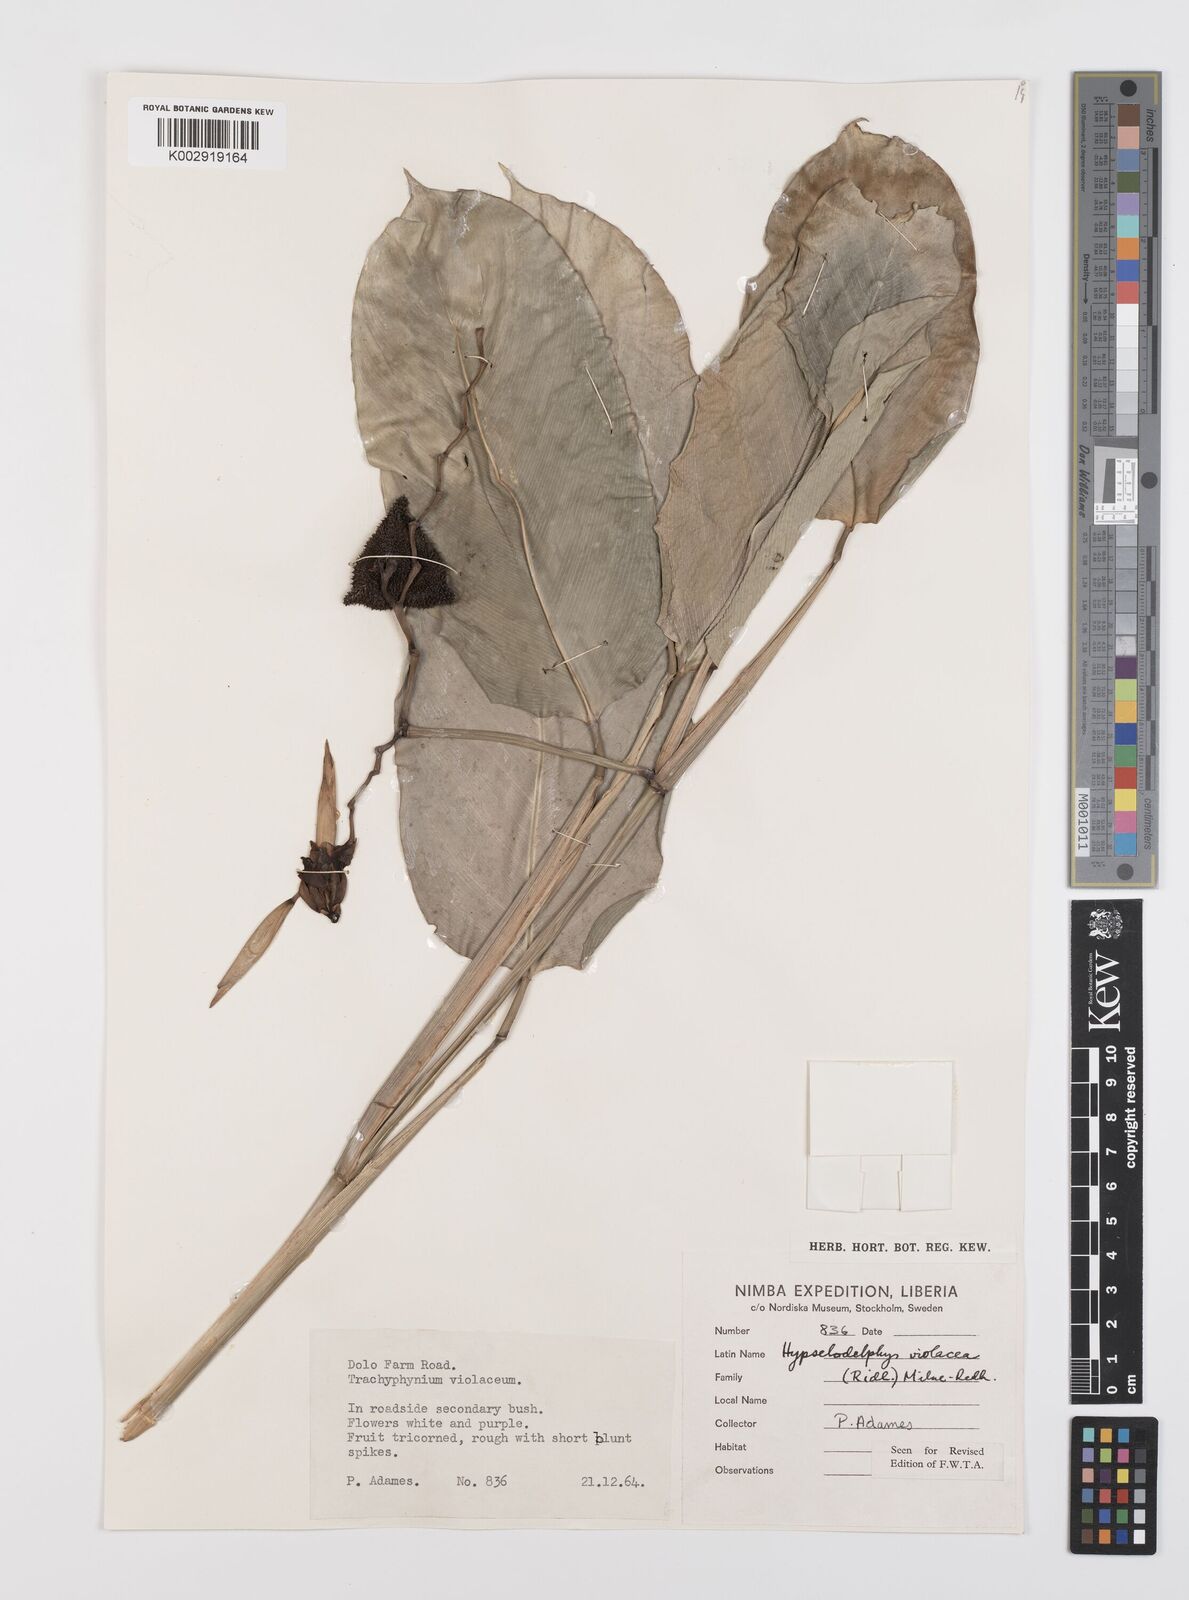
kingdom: Plantae
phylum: Tracheophyta
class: Liliopsida
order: Zingiberales
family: Marantaceae
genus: Hypselodelphys
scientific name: Hypselodelphys violacea
